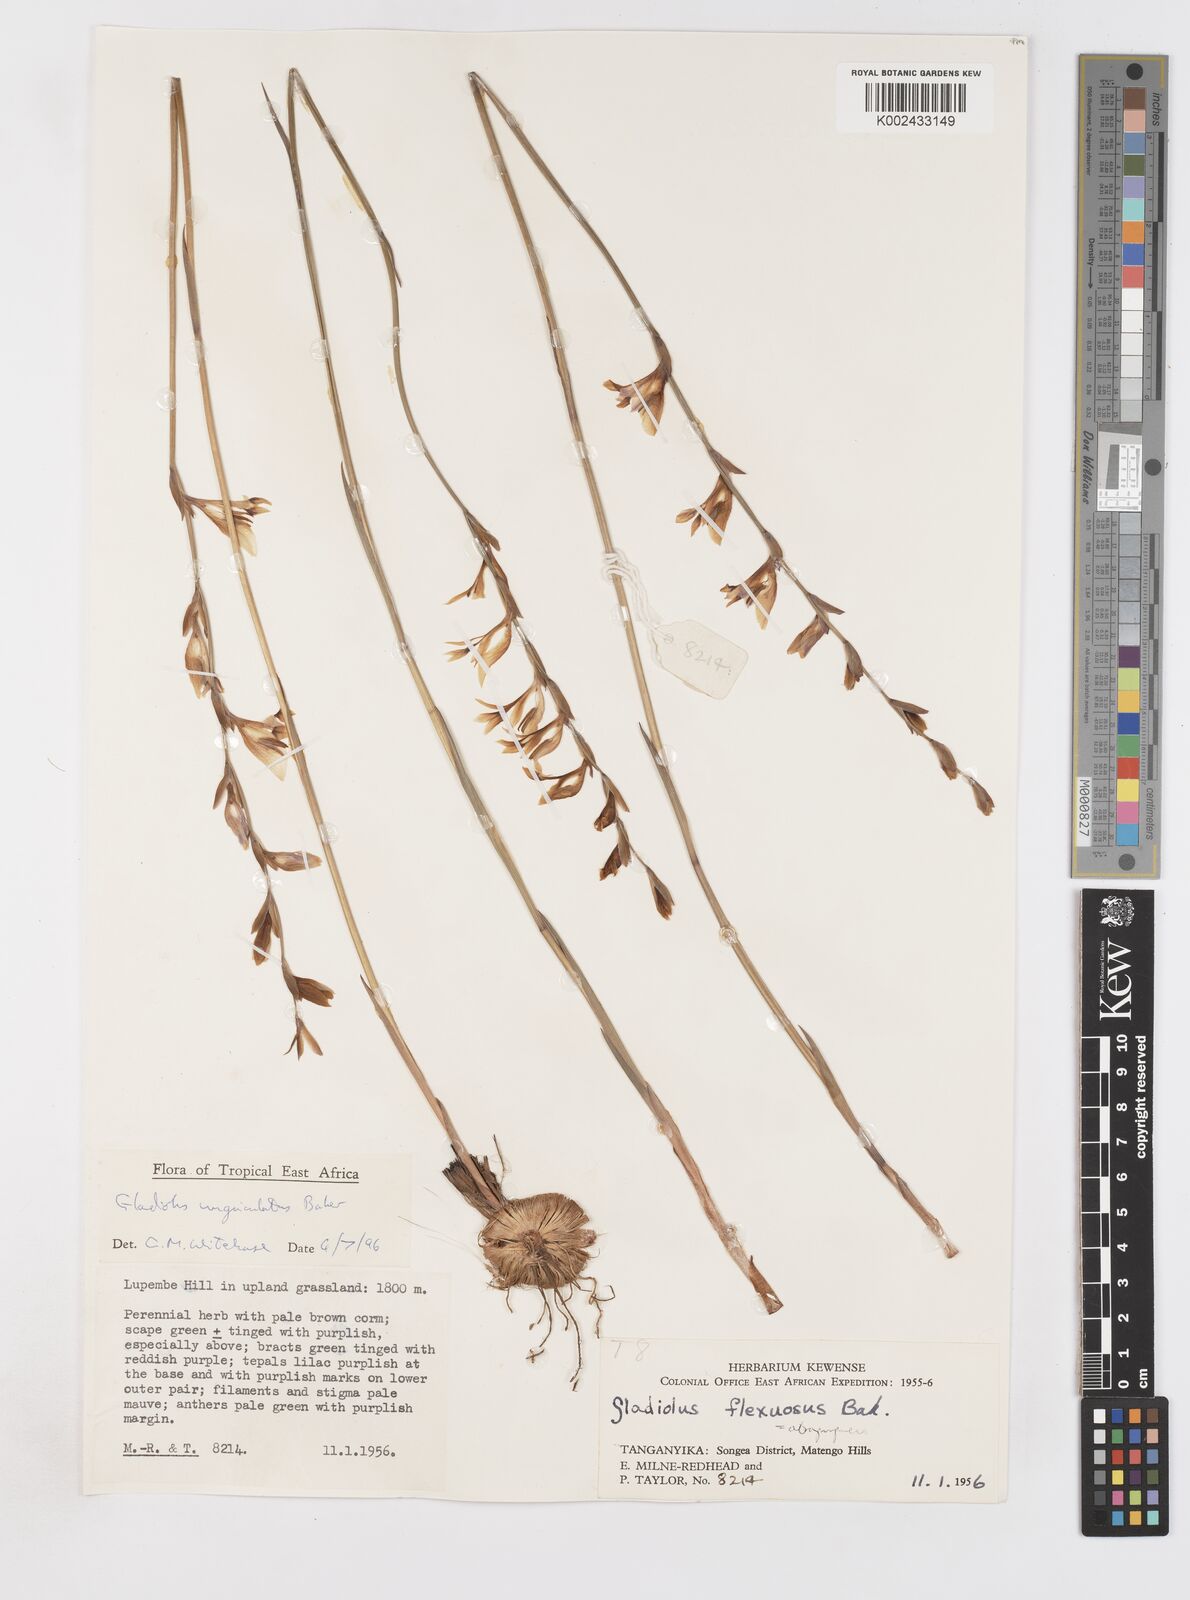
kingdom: Plantae
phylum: Tracheophyta
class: Liliopsida
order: Asparagales
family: Iridaceae
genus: Gladiolus
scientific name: Gladiolus unguiculatus
